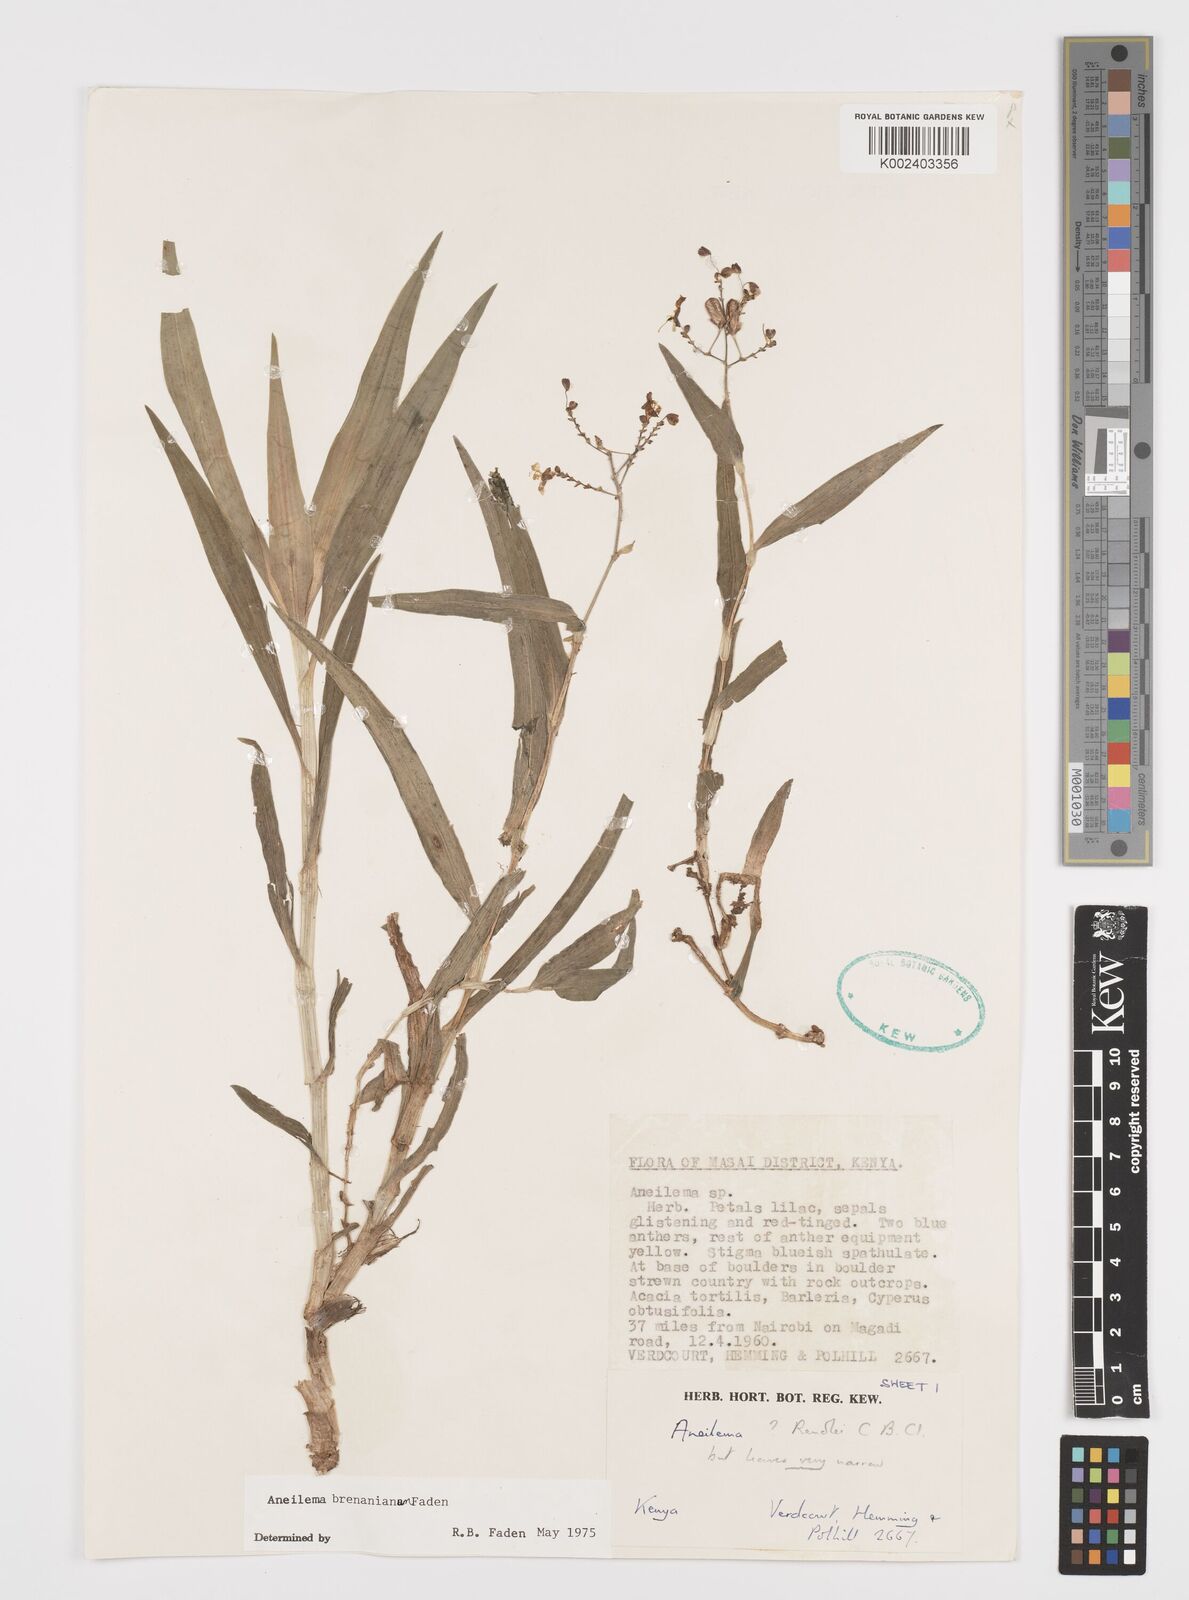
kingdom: Plantae
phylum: Tracheophyta
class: Liliopsida
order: Commelinales
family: Commelinaceae
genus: Aneilema
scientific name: Aneilema brenanianum
